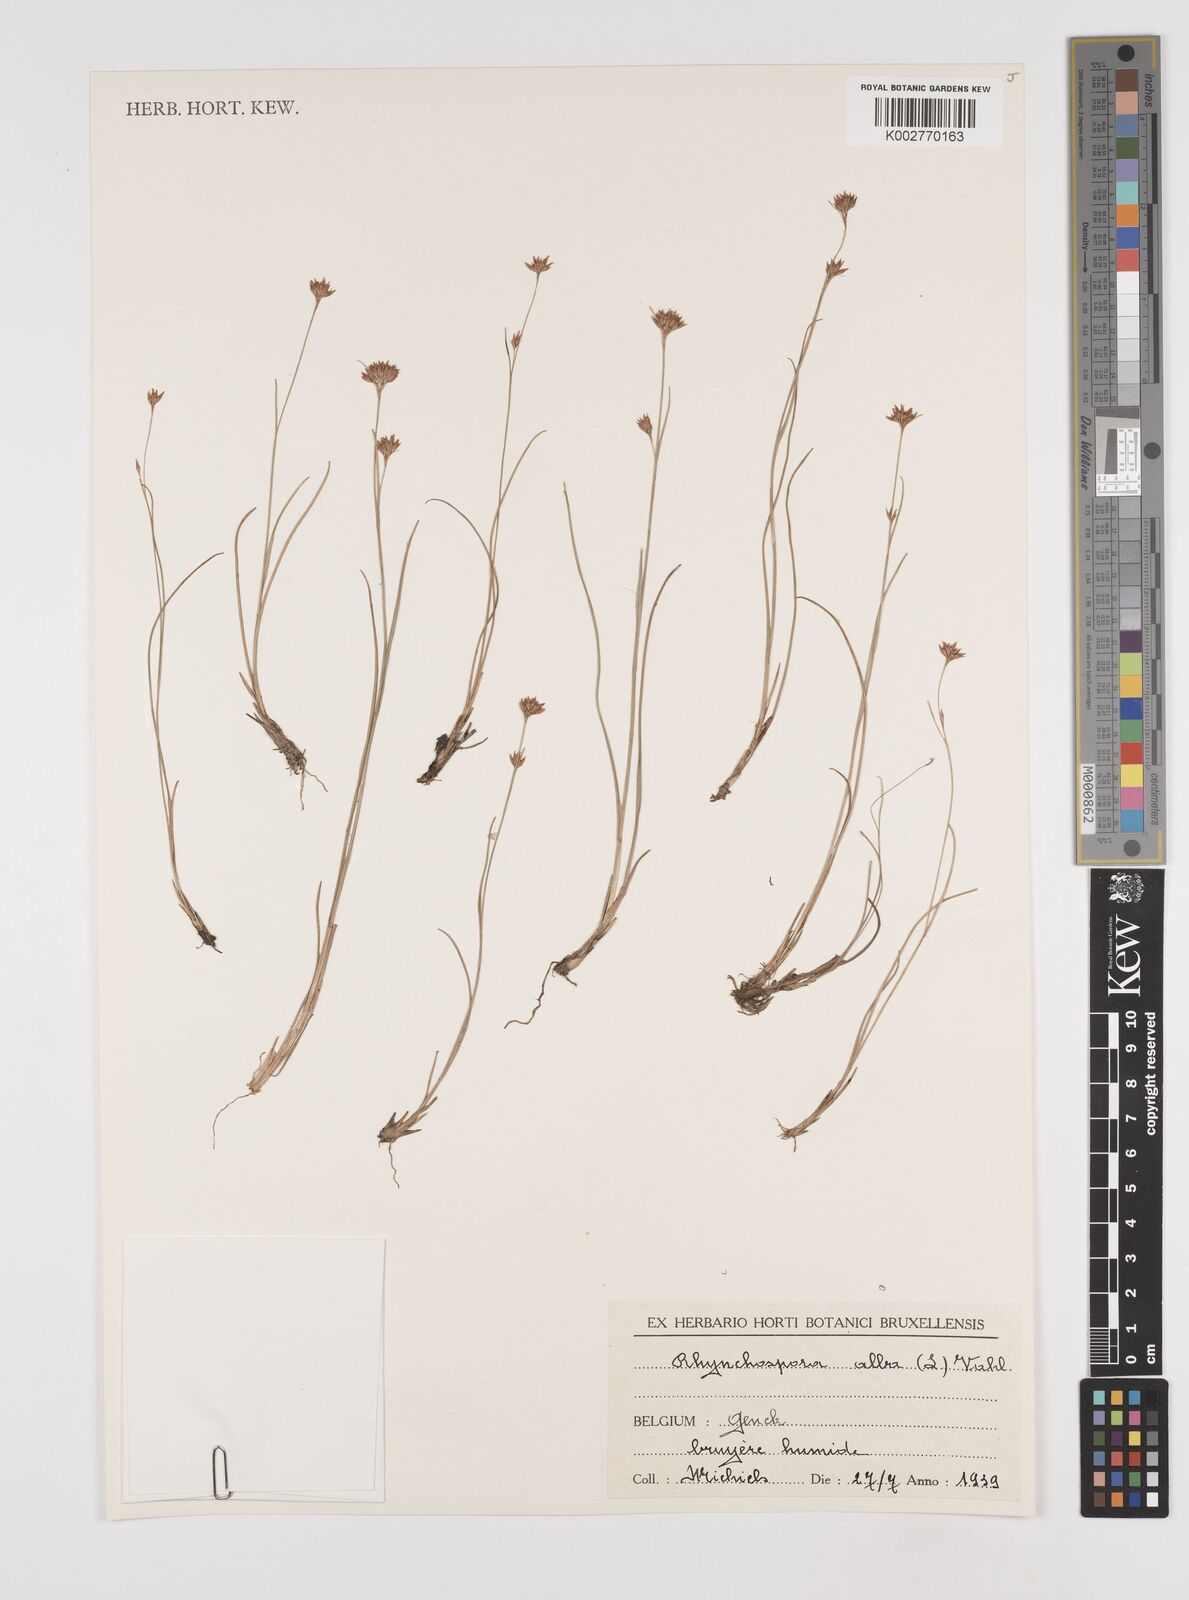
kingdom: Plantae
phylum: Tracheophyta
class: Liliopsida
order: Poales
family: Cyperaceae
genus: Rhynchospora
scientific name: Rhynchospora alba
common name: White beak-sedge
